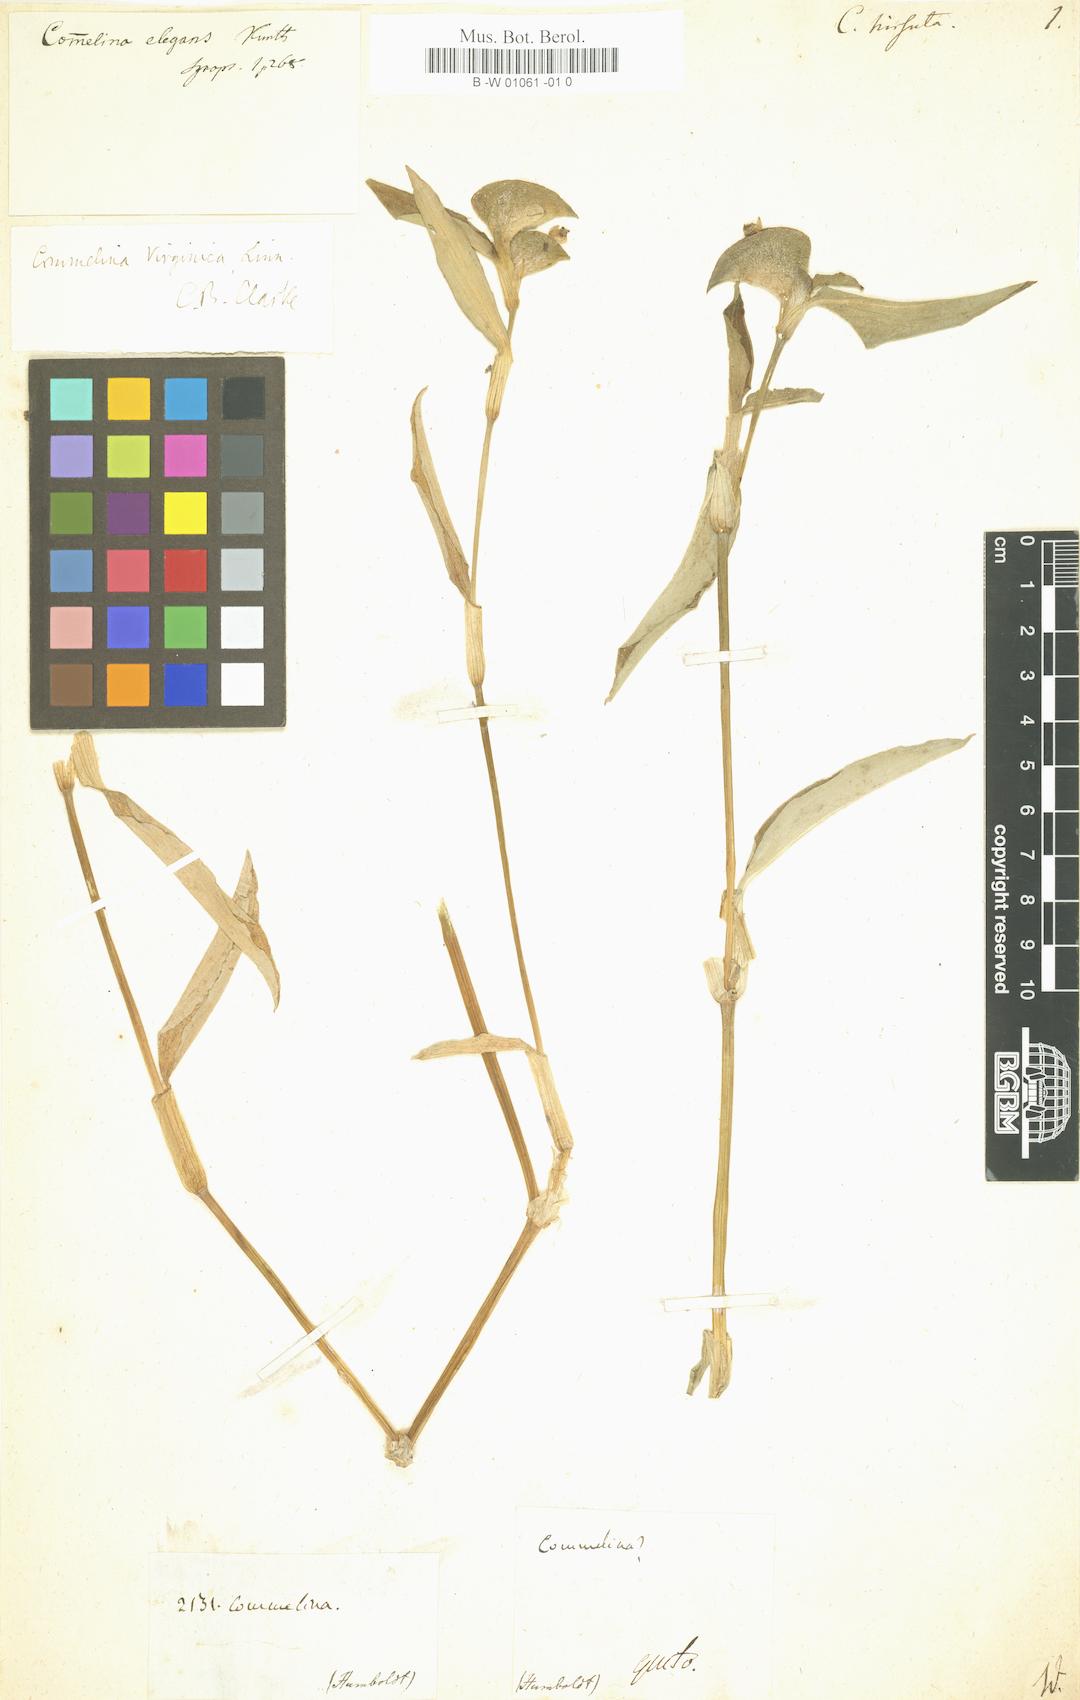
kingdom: Plantae
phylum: Tracheophyta
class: Liliopsida
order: Commelinales
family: Commelinaceae
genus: Commelina
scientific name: Commelina hirsuta
